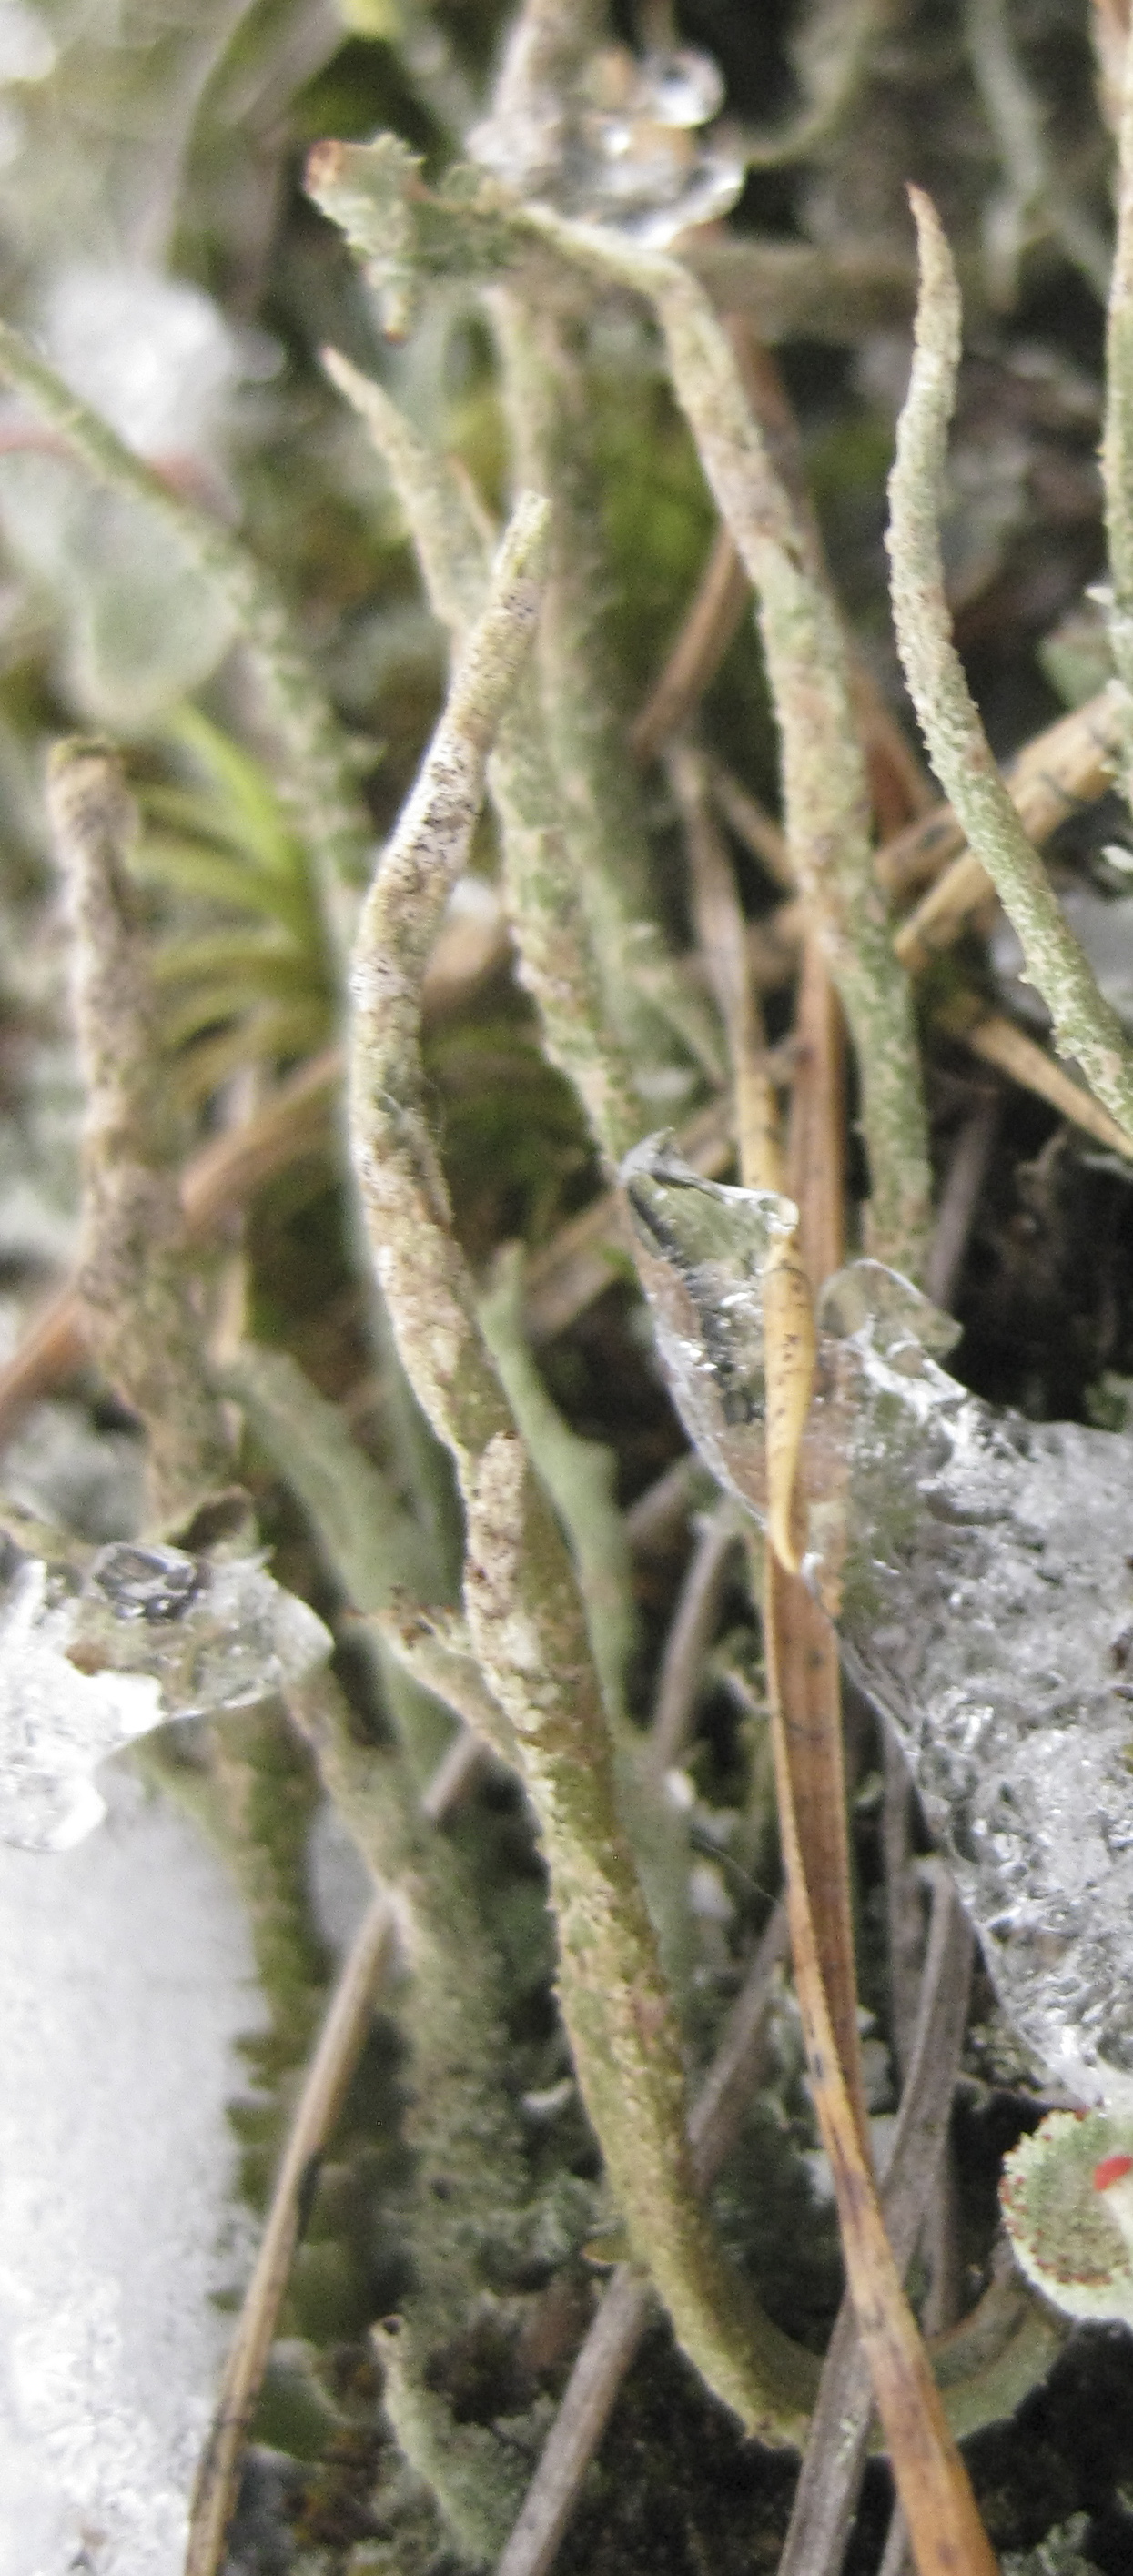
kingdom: Fungi
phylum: Ascomycota
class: Lecanoromycetes
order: Lecanorales
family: Cladoniaceae
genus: Cladonia
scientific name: Cladonia cornuta
